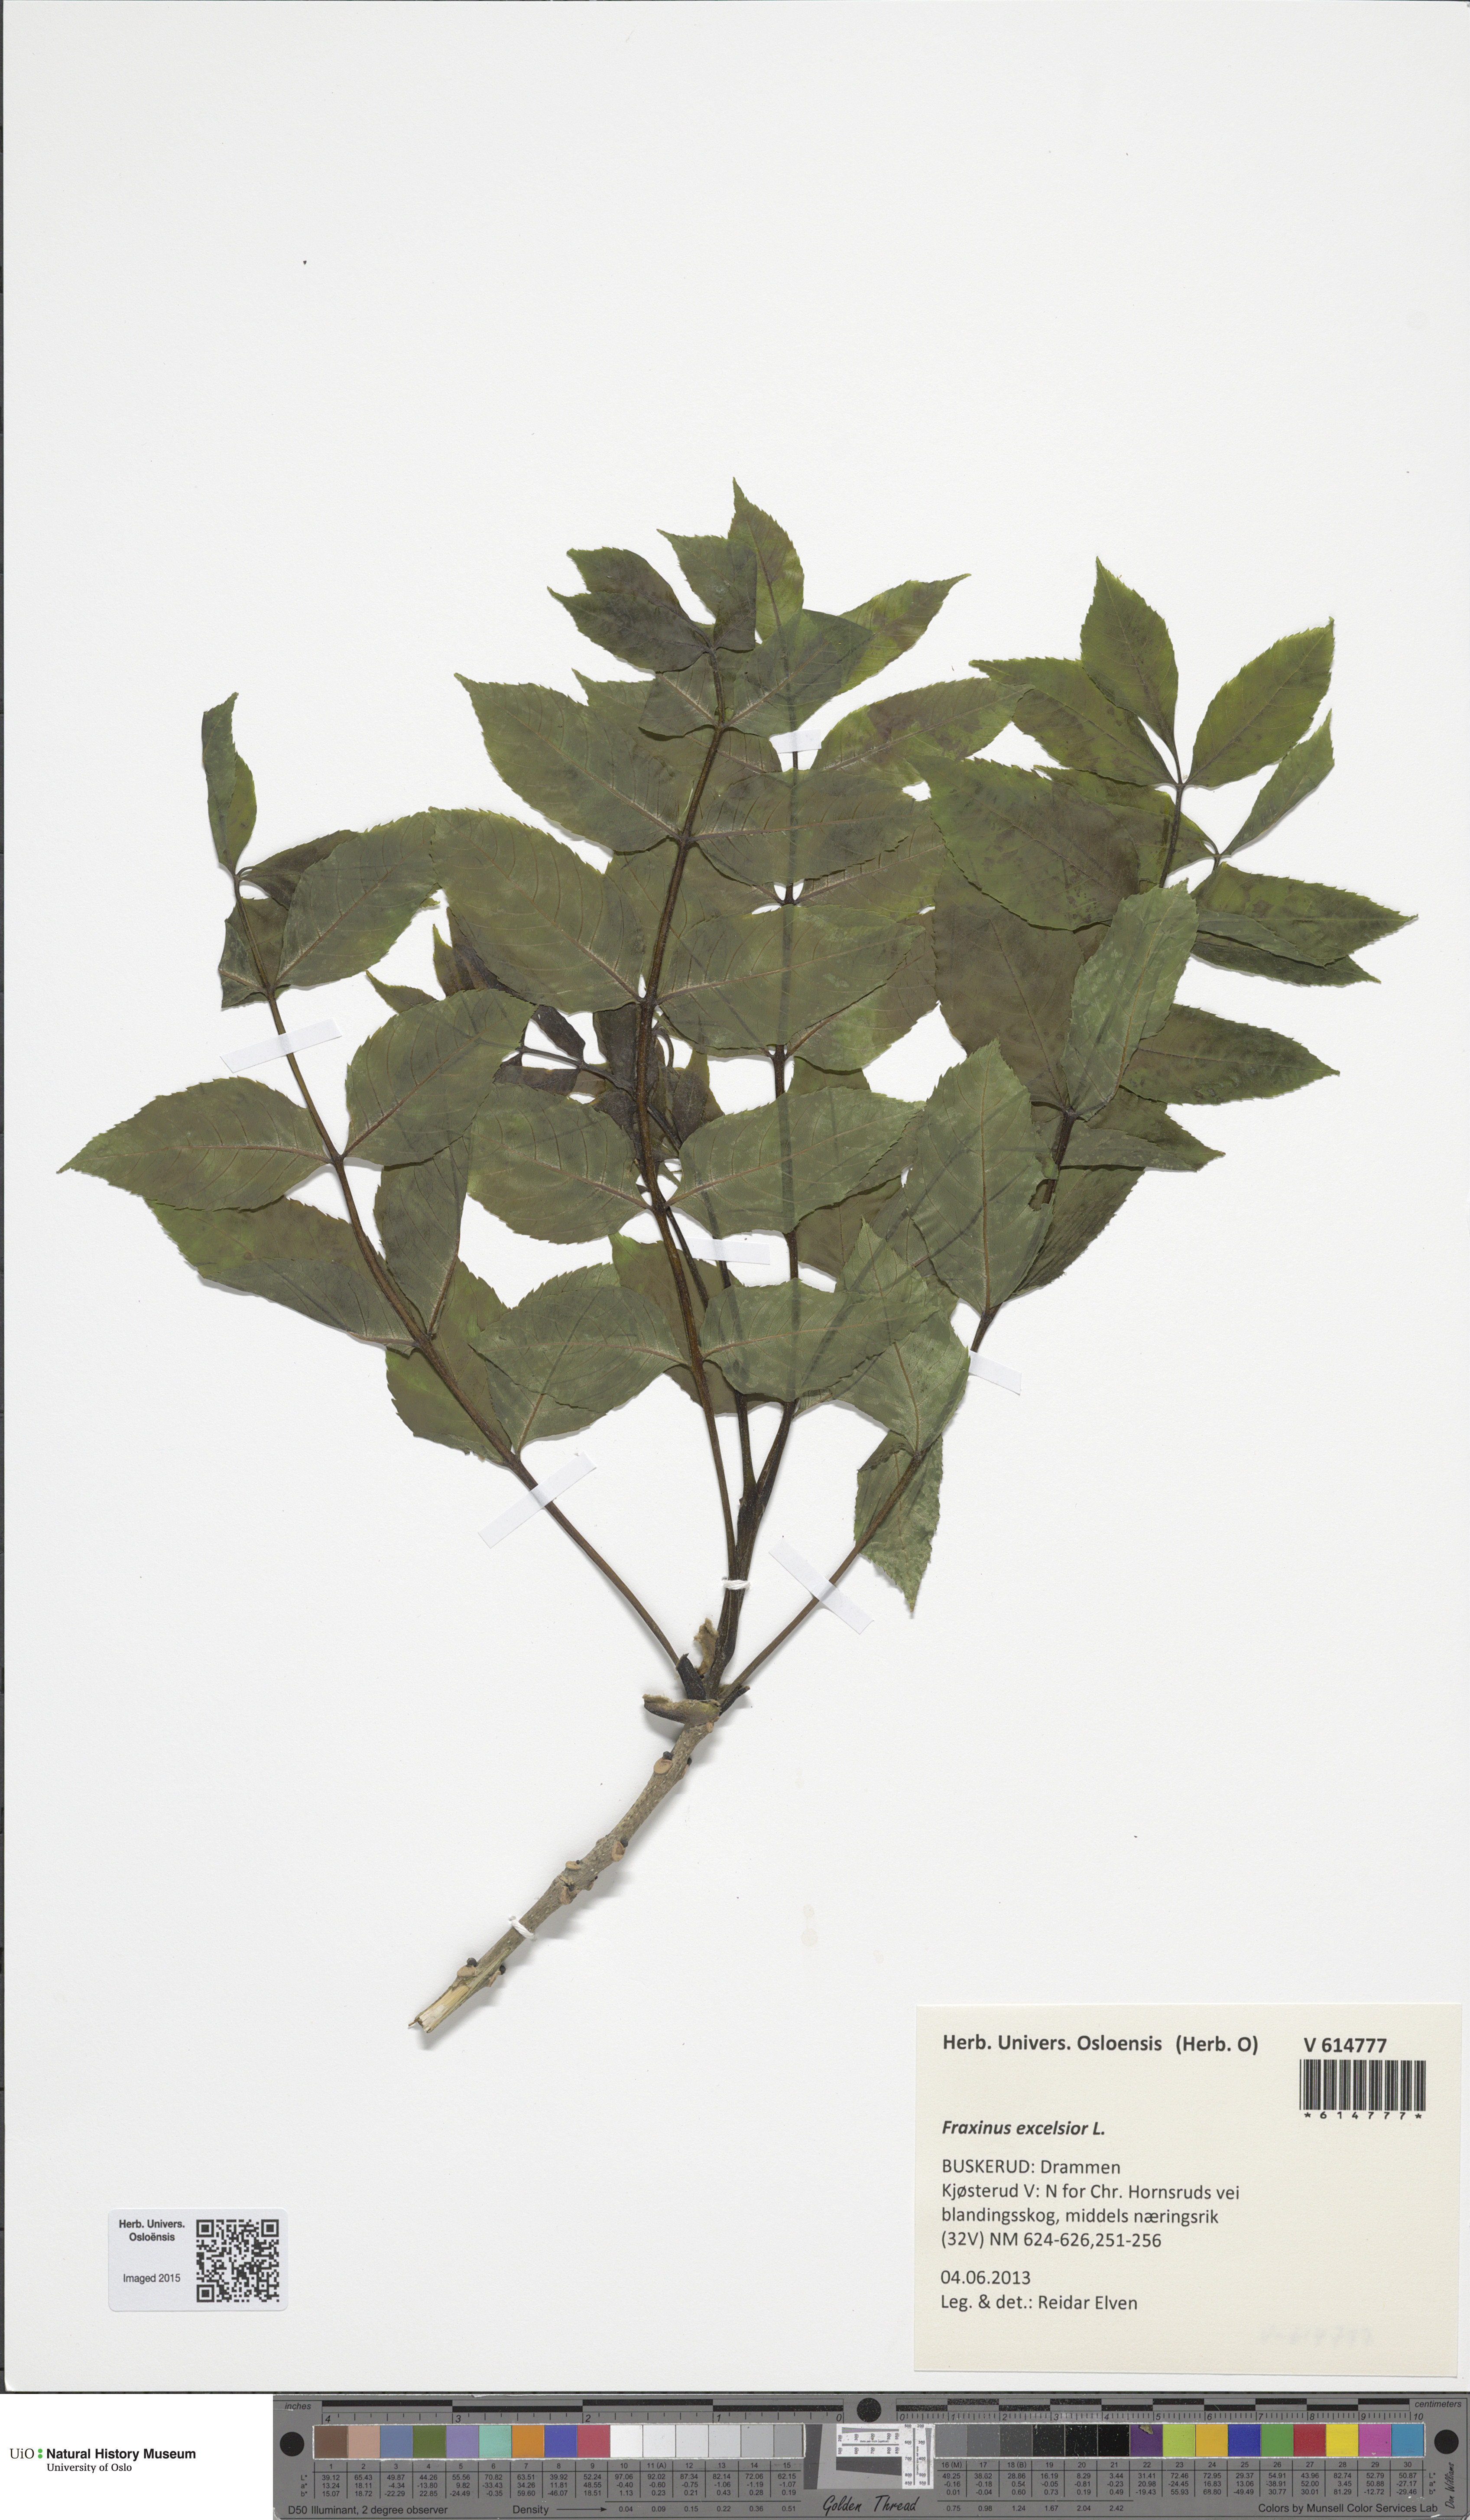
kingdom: Plantae
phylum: Tracheophyta
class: Magnoliopsida
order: Lamiales
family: Oleaceae
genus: Fraxinus
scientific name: Fraxinus excelsior
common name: European ash
